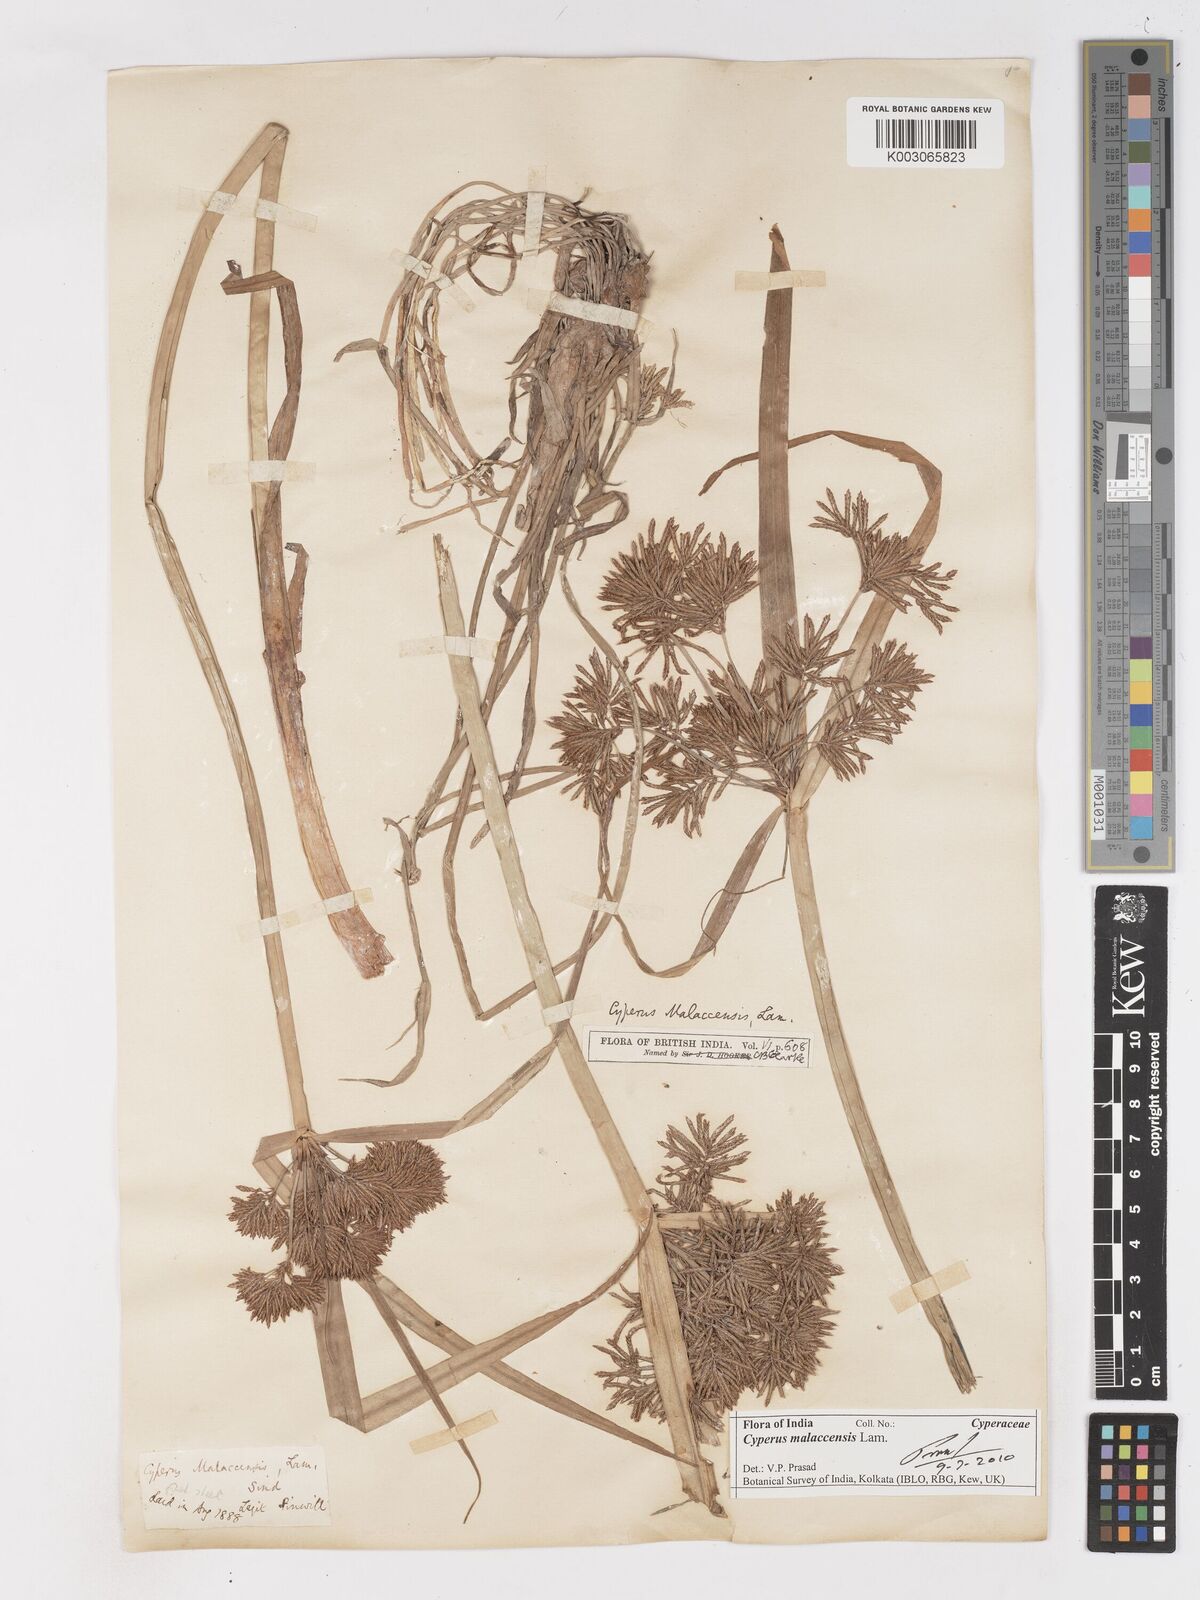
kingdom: Plantae
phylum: Tracheophyta
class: Liliopsida
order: Poales
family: Cyperaceae
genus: Cyperus
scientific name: Cyperus malaccensis
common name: Shichito matgrass
